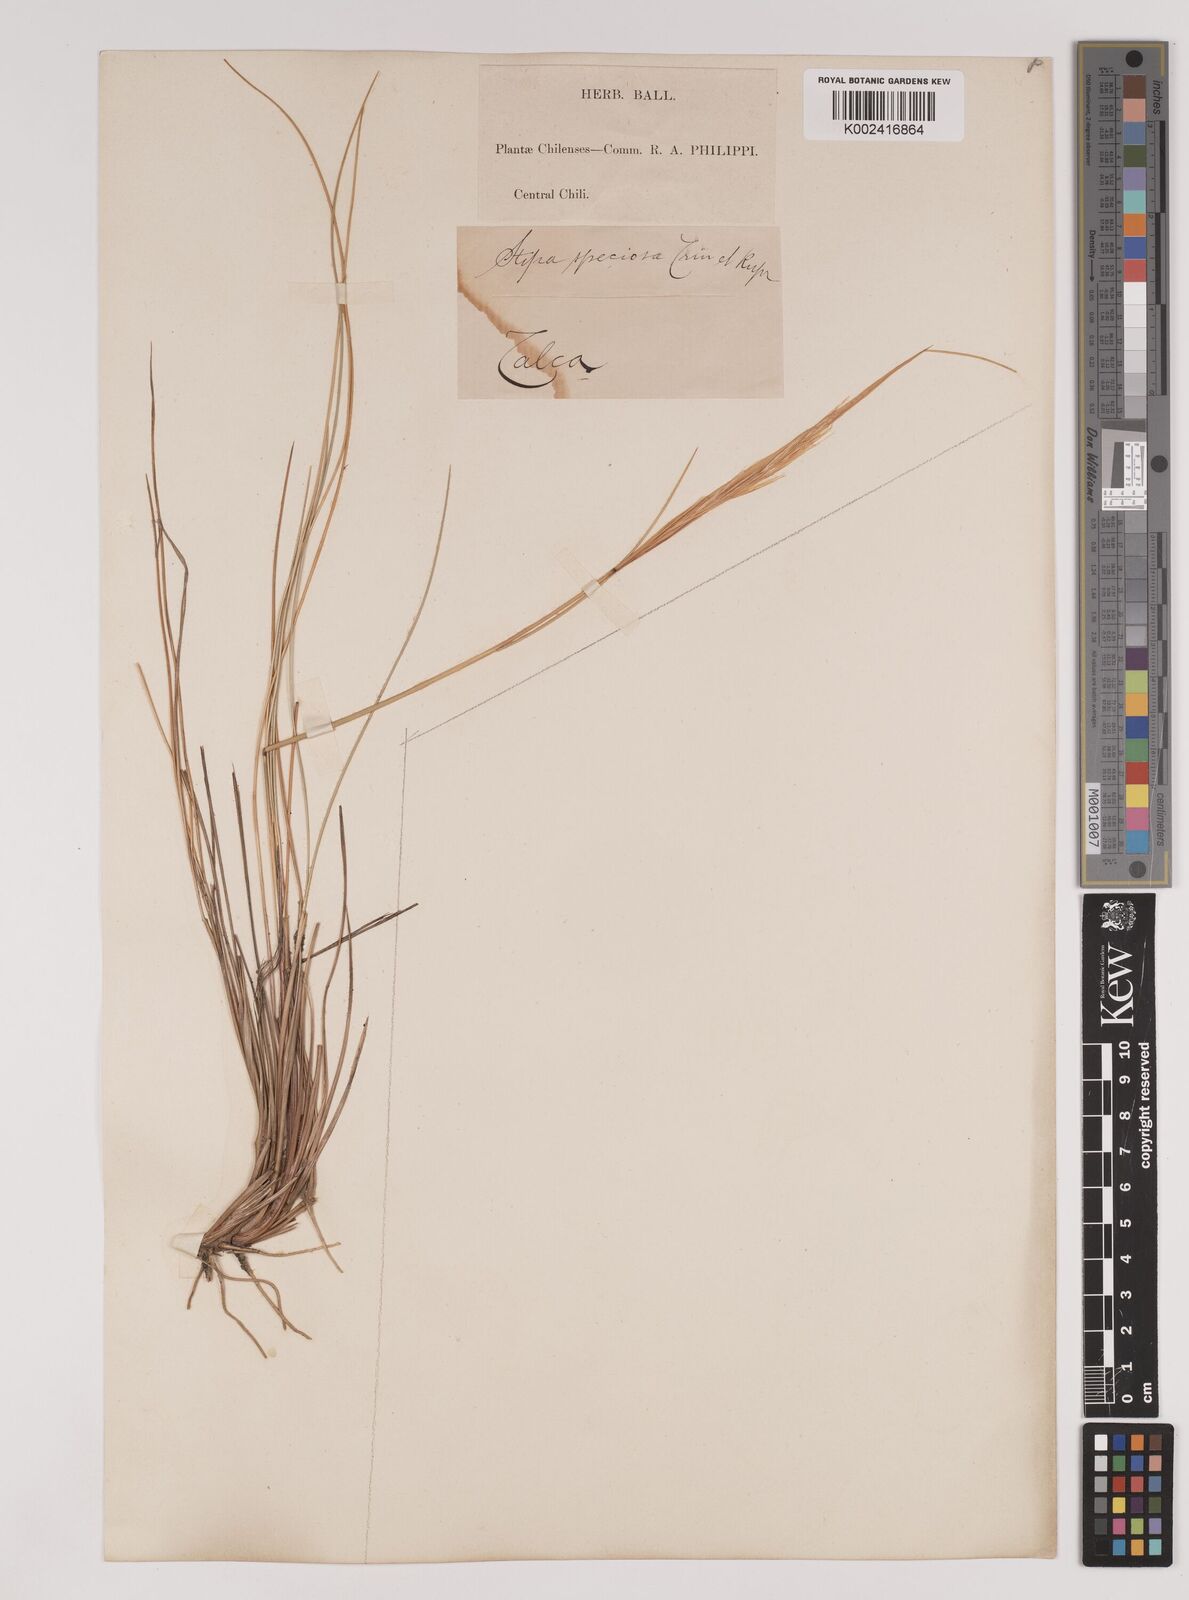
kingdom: Plantae
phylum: Tracheophyta
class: Liliopsida
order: Poales
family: Poaceae
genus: Pappostipa
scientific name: Pappostipa speciosa
